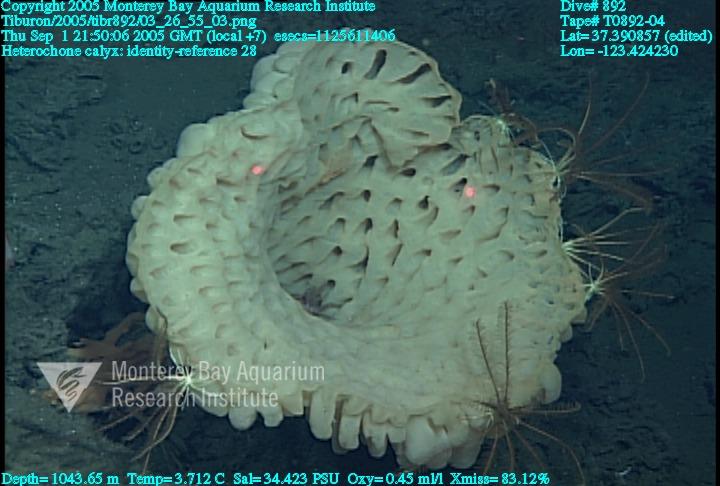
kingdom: Animalia
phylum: Porifera
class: Hexactinellida
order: Sceptrulophora
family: Aphrocallistidae
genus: Heterochone
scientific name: Heterochone calyx
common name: Fingered goblet glass sponge
